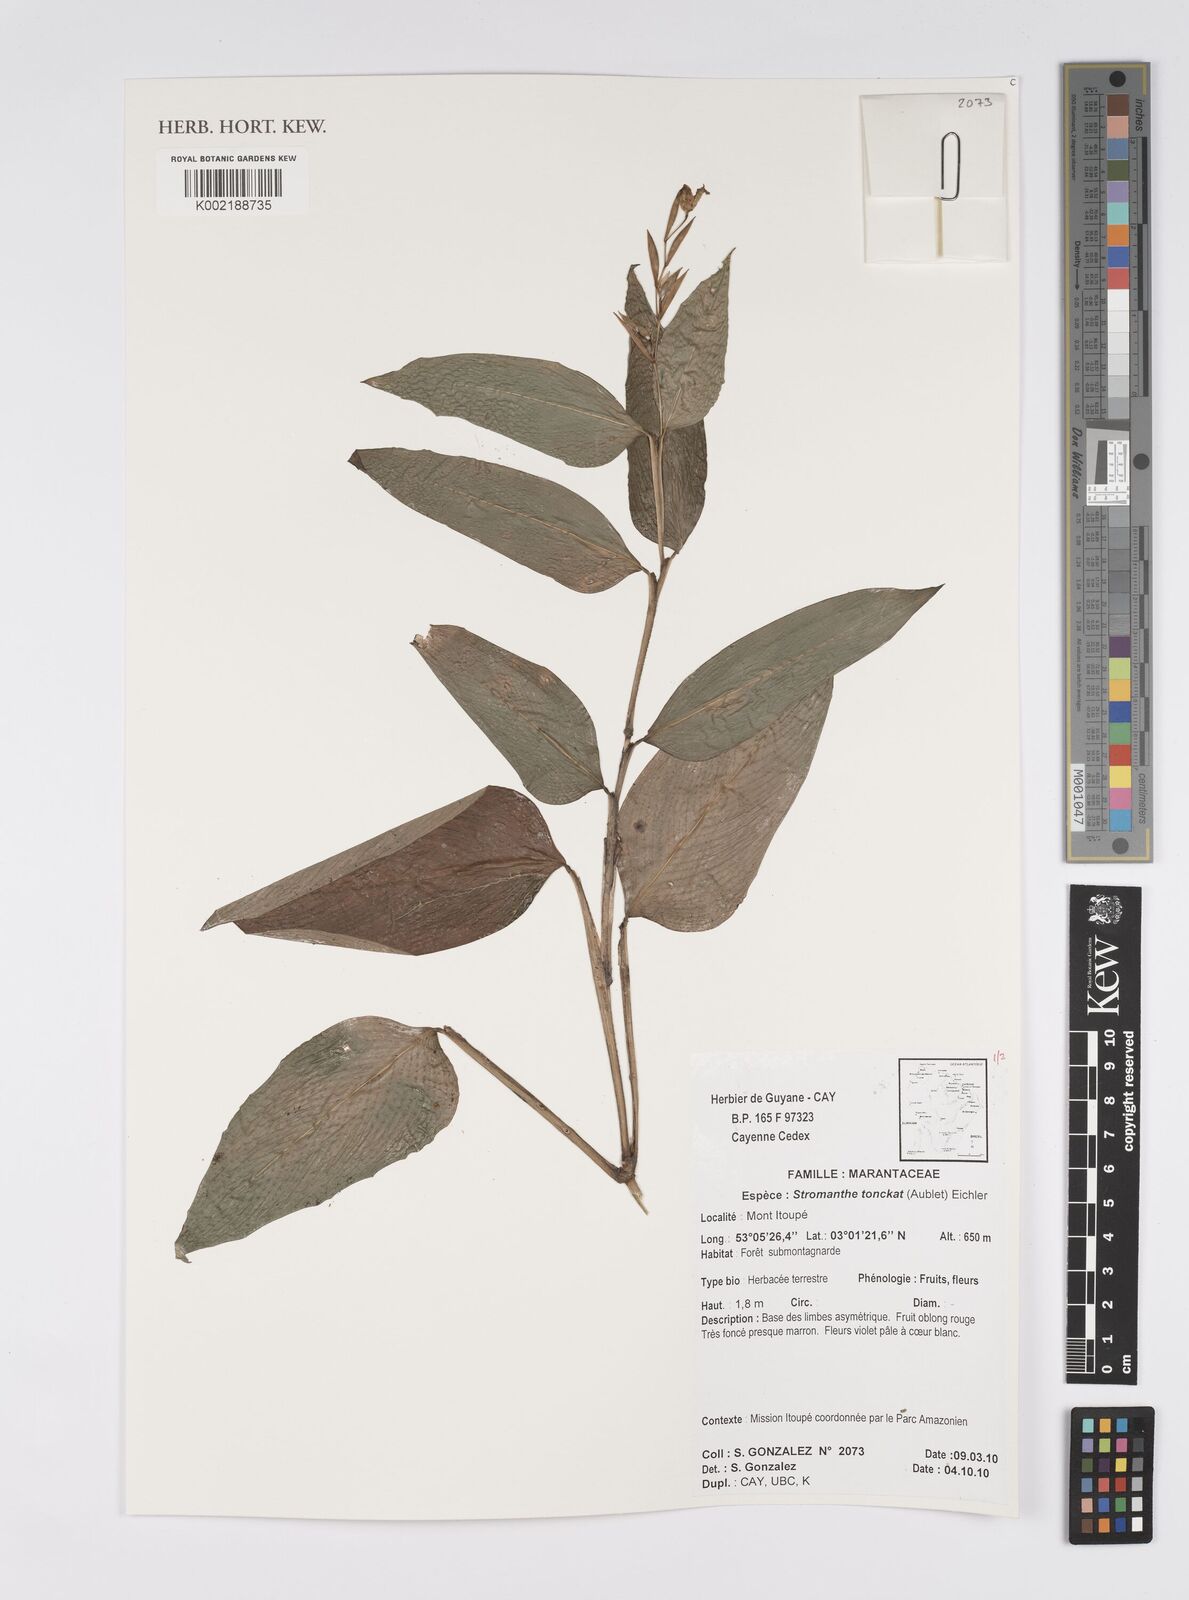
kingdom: Plantae
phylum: Tracheophyta
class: Liliopsida
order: Zingiberales
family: Marantaceae
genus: Stromanthe
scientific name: Stromanthe tonckat
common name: Stromanthe
